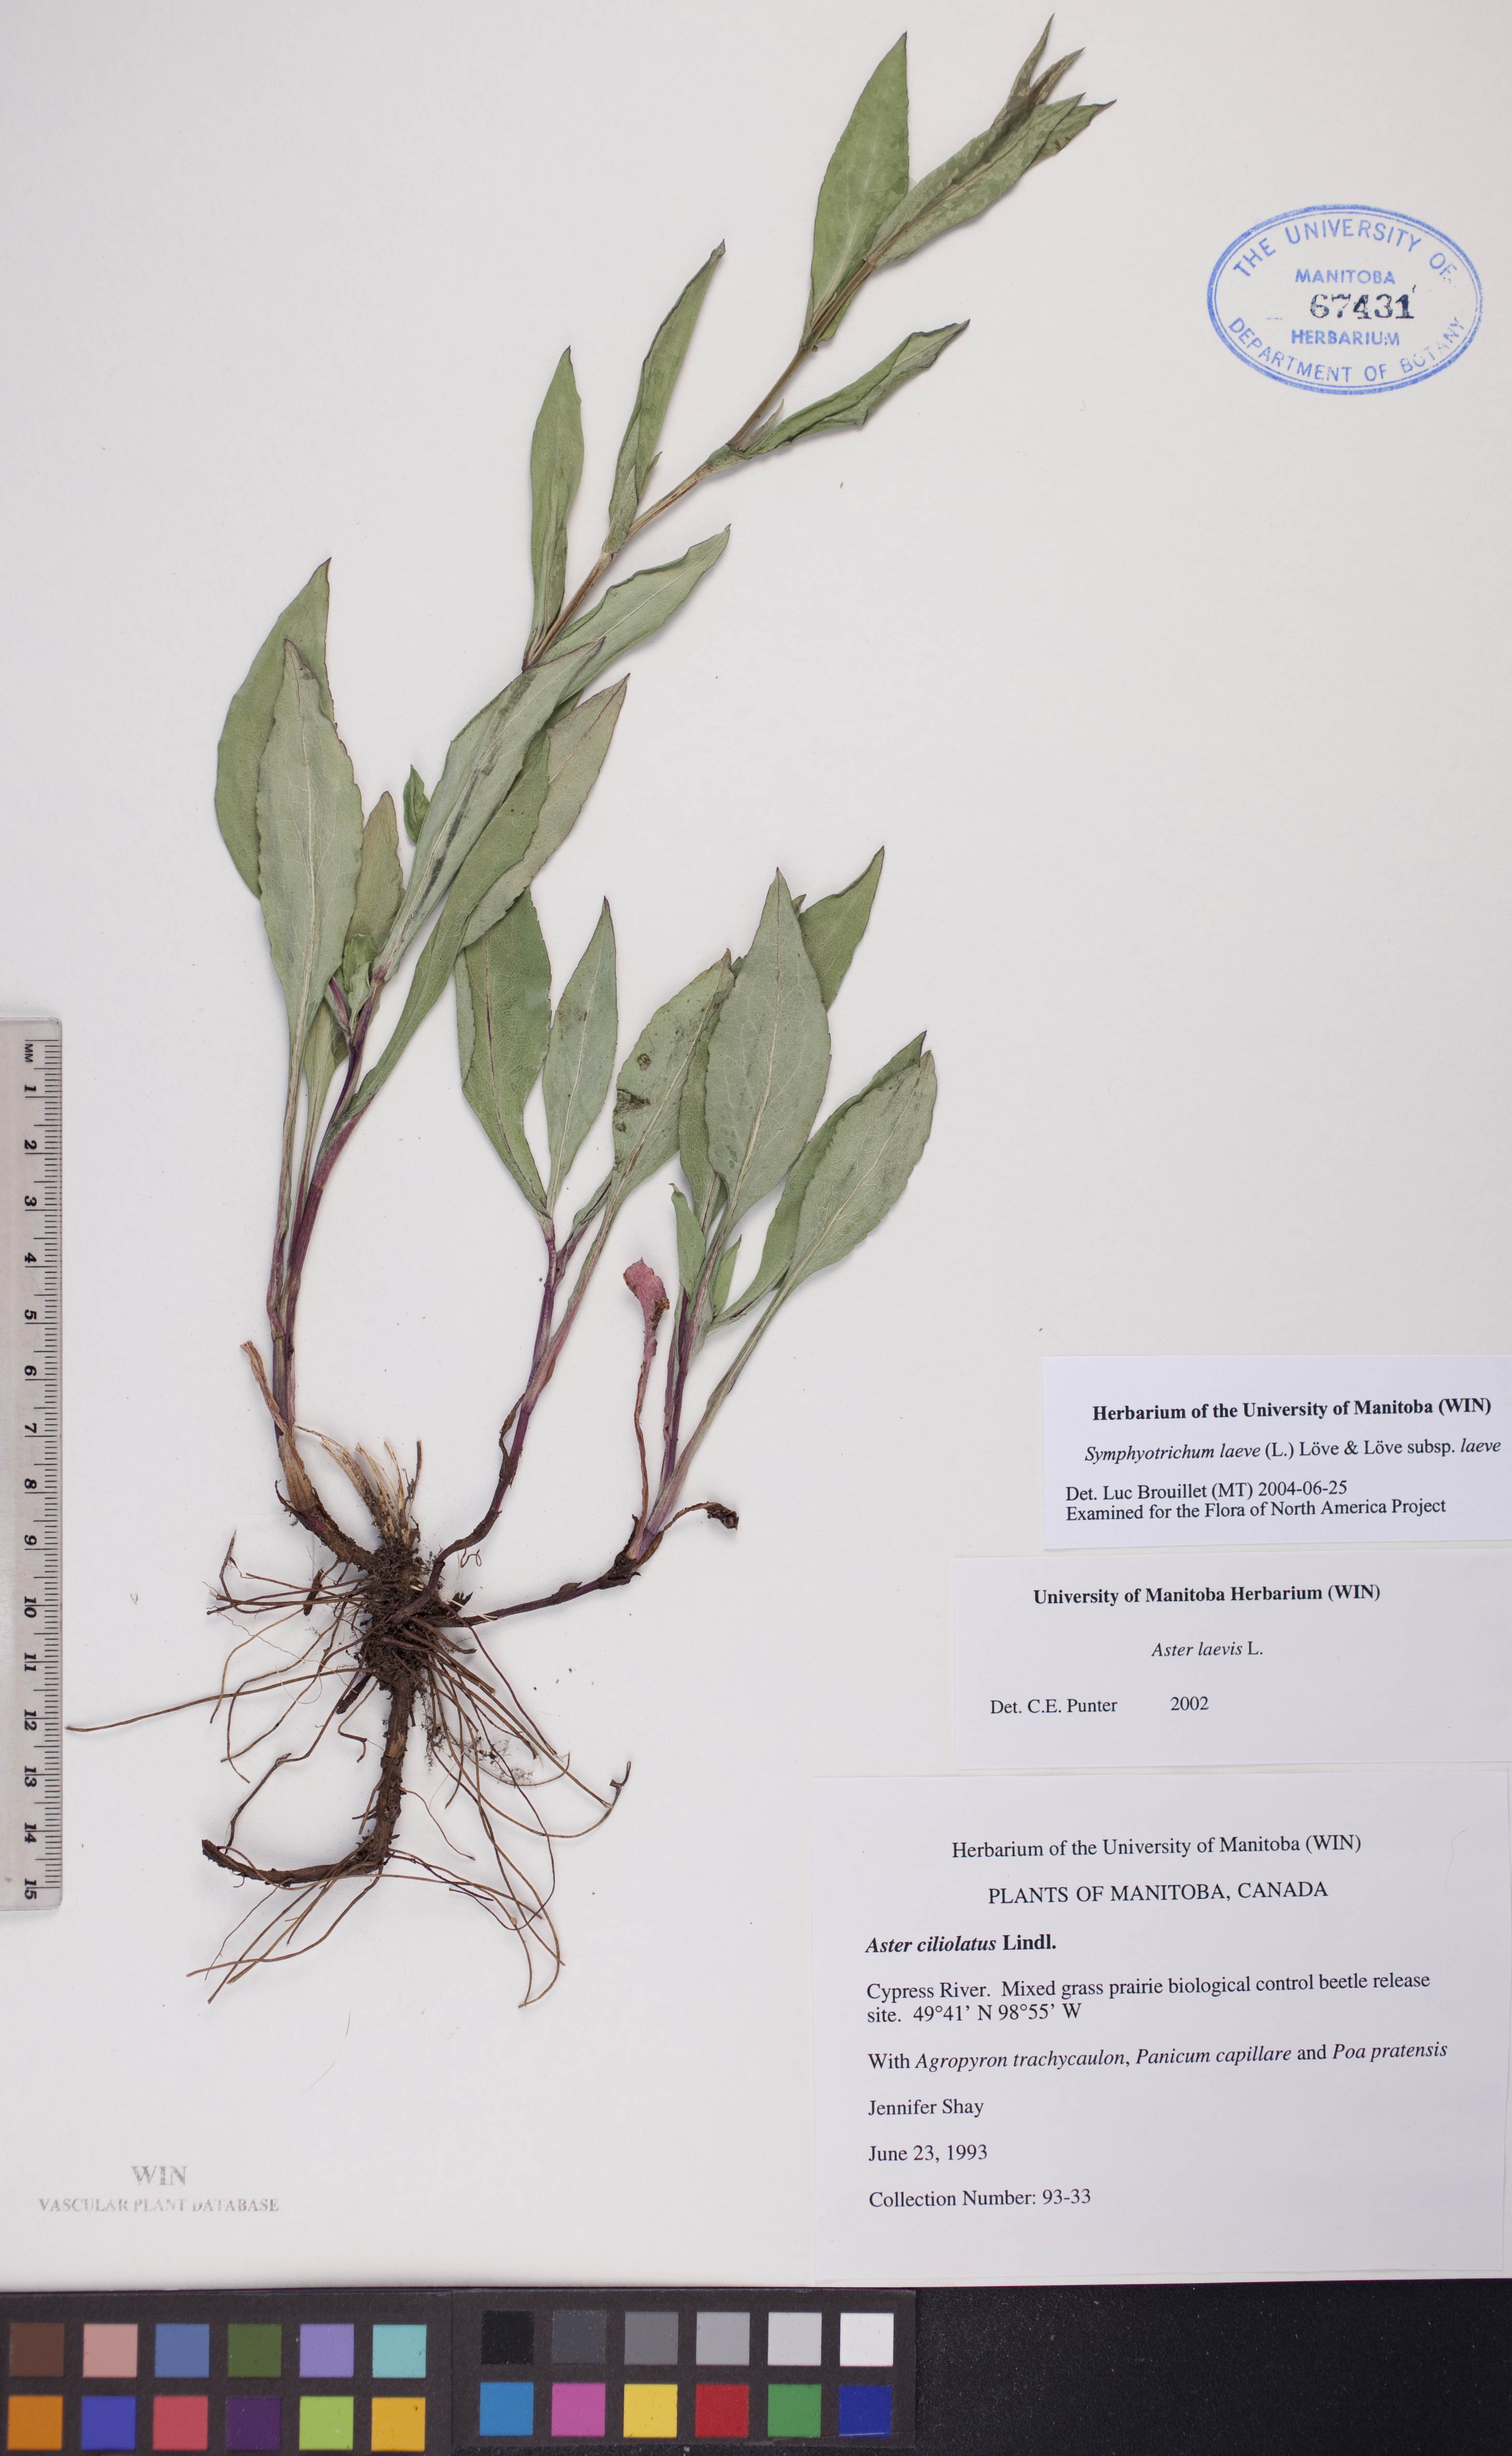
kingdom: Plantae
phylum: Tracheophyta
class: Magnoliopsida
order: Asterales
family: Asteraceae
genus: Symphyotrichum
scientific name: Symphyotrichum laeve
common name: Glaucous aster
